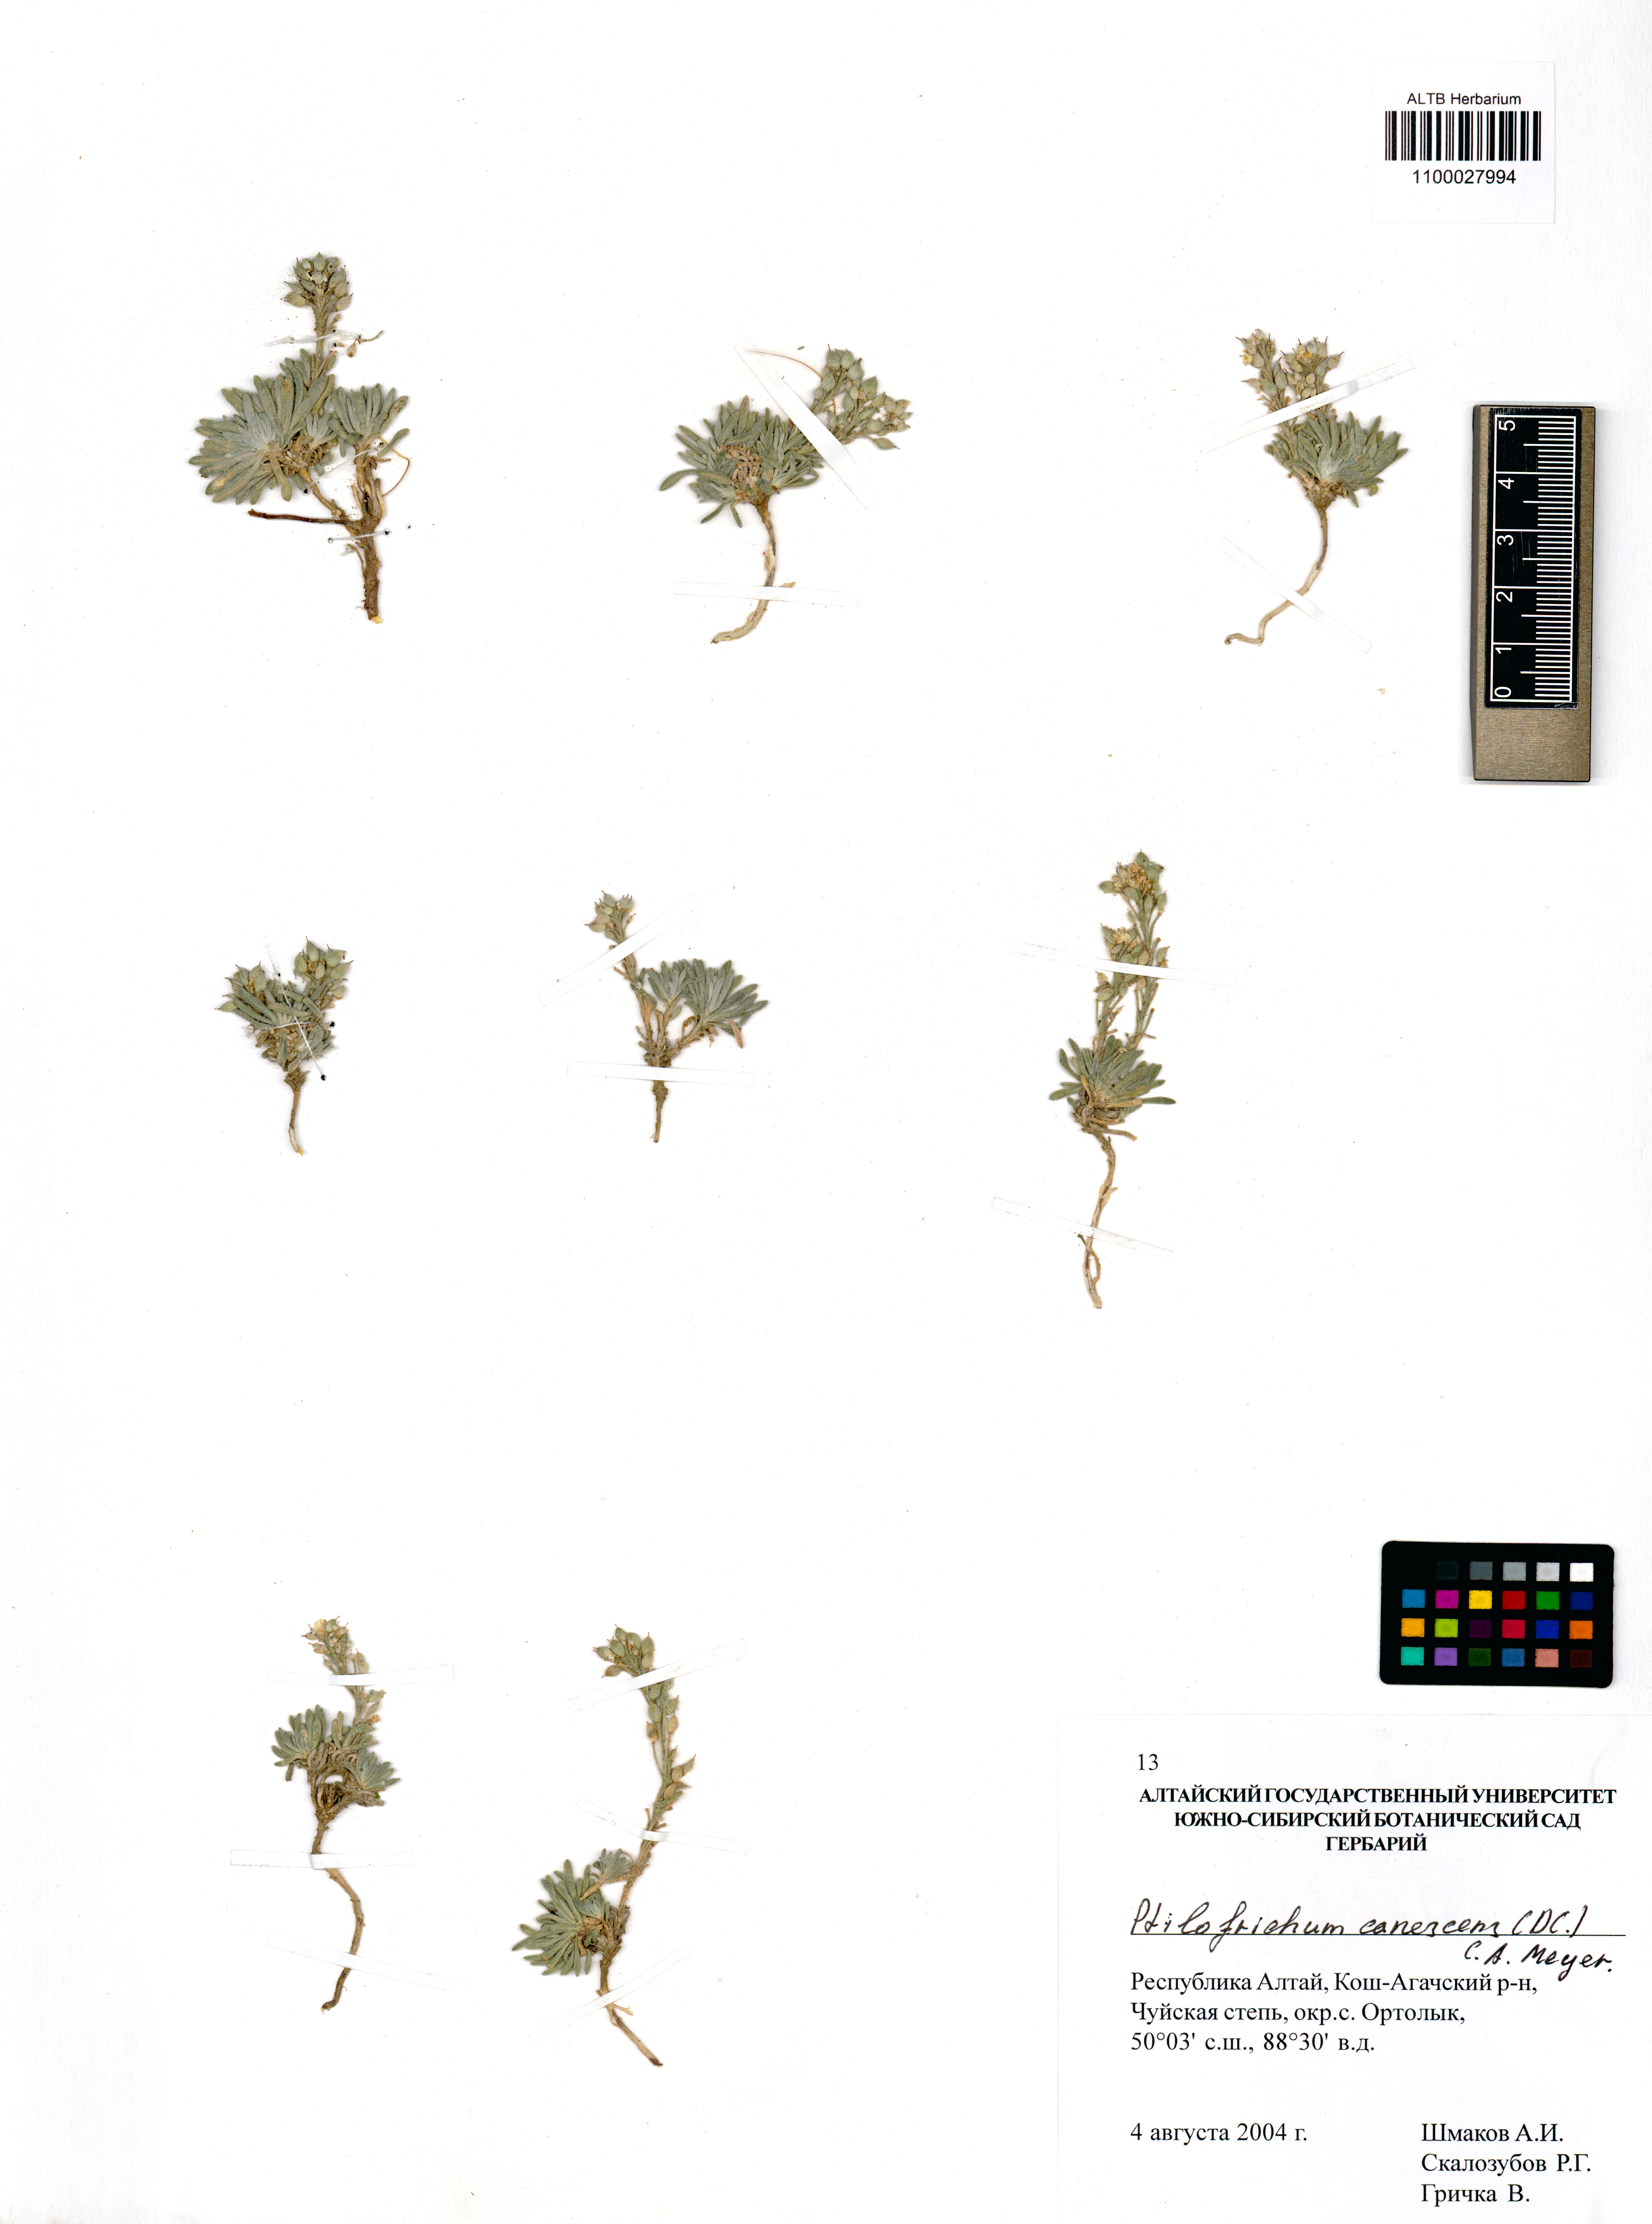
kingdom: Plantae
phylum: Tracheophyta
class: Magnoliopsida
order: Brassicales
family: Brassicaceae
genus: Stevenia
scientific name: Stevenia canescens
